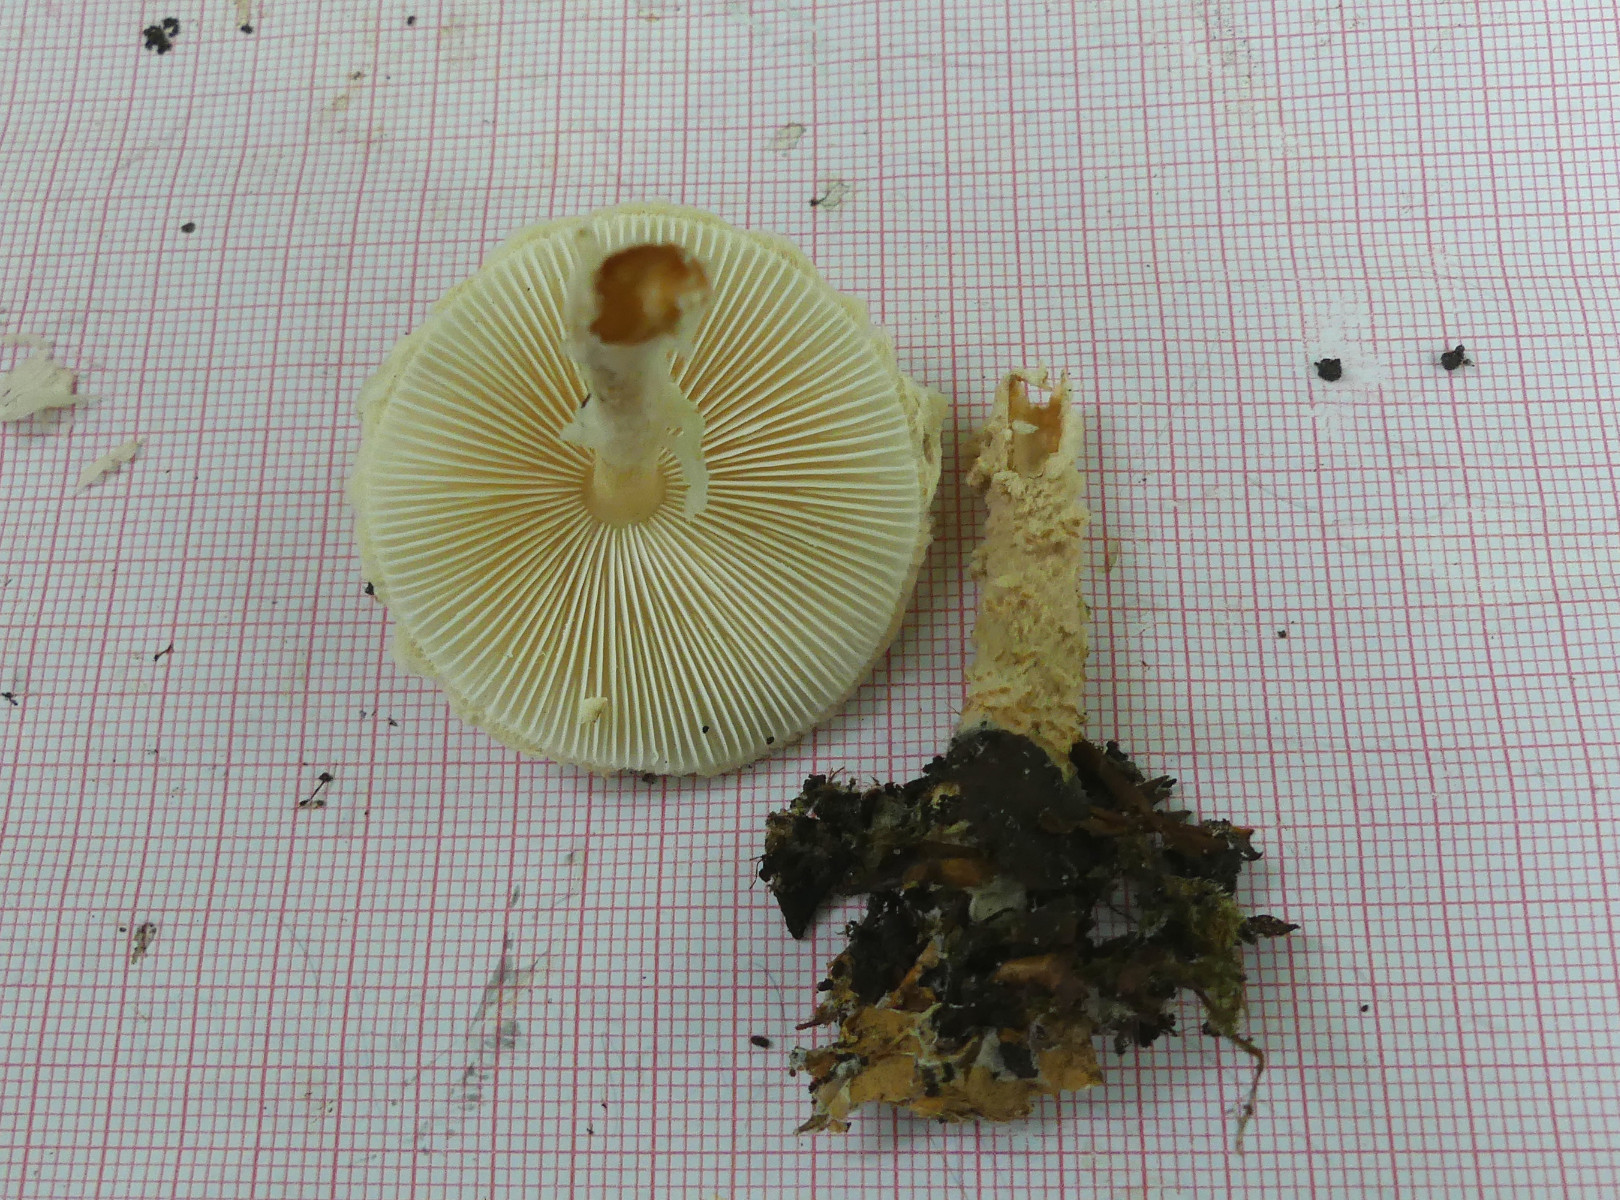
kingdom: Fungi
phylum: Basidiomycota
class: Agaricomycetes
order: Agaricales
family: Agaricaceae
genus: Lepiota
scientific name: Lepiota magnispora
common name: gulfnugget parasolhat
